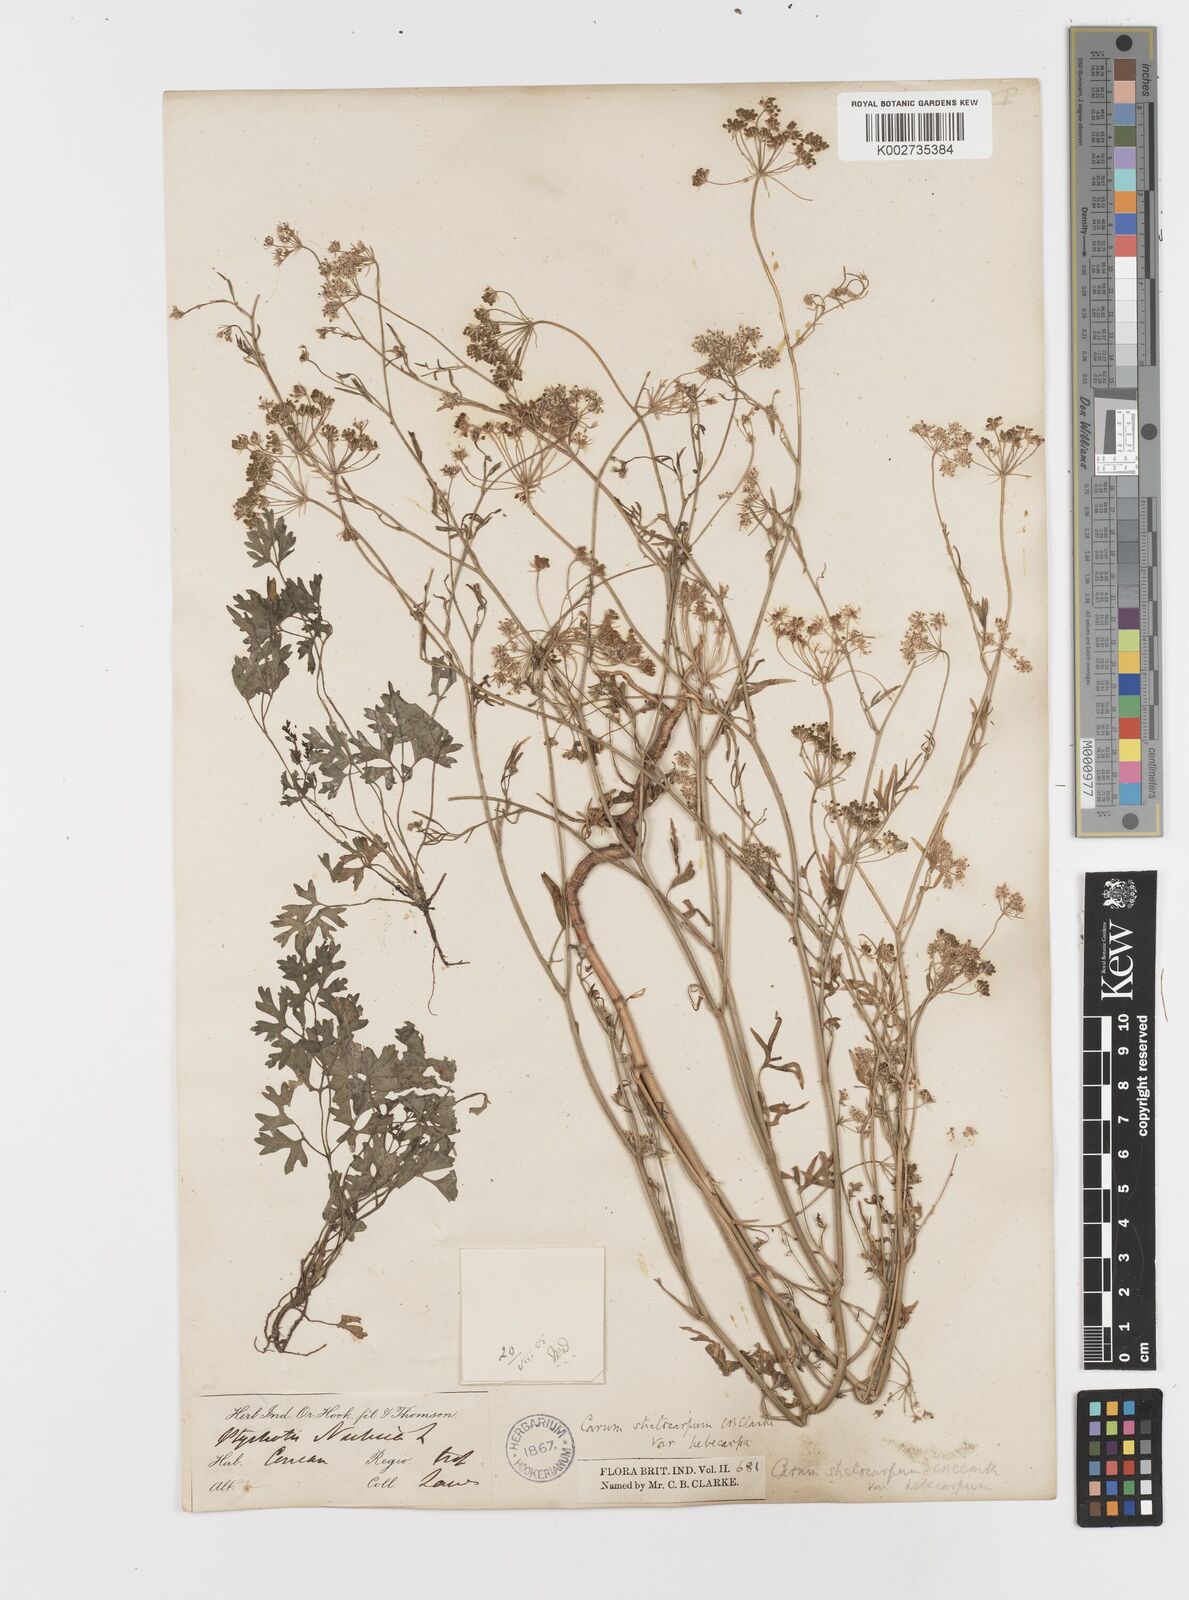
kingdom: Plantae
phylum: Tracheophyta
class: Magnoliopsida
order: Apiales
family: Apiaceae
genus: Psammogeton
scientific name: Psammogeton involucratum
